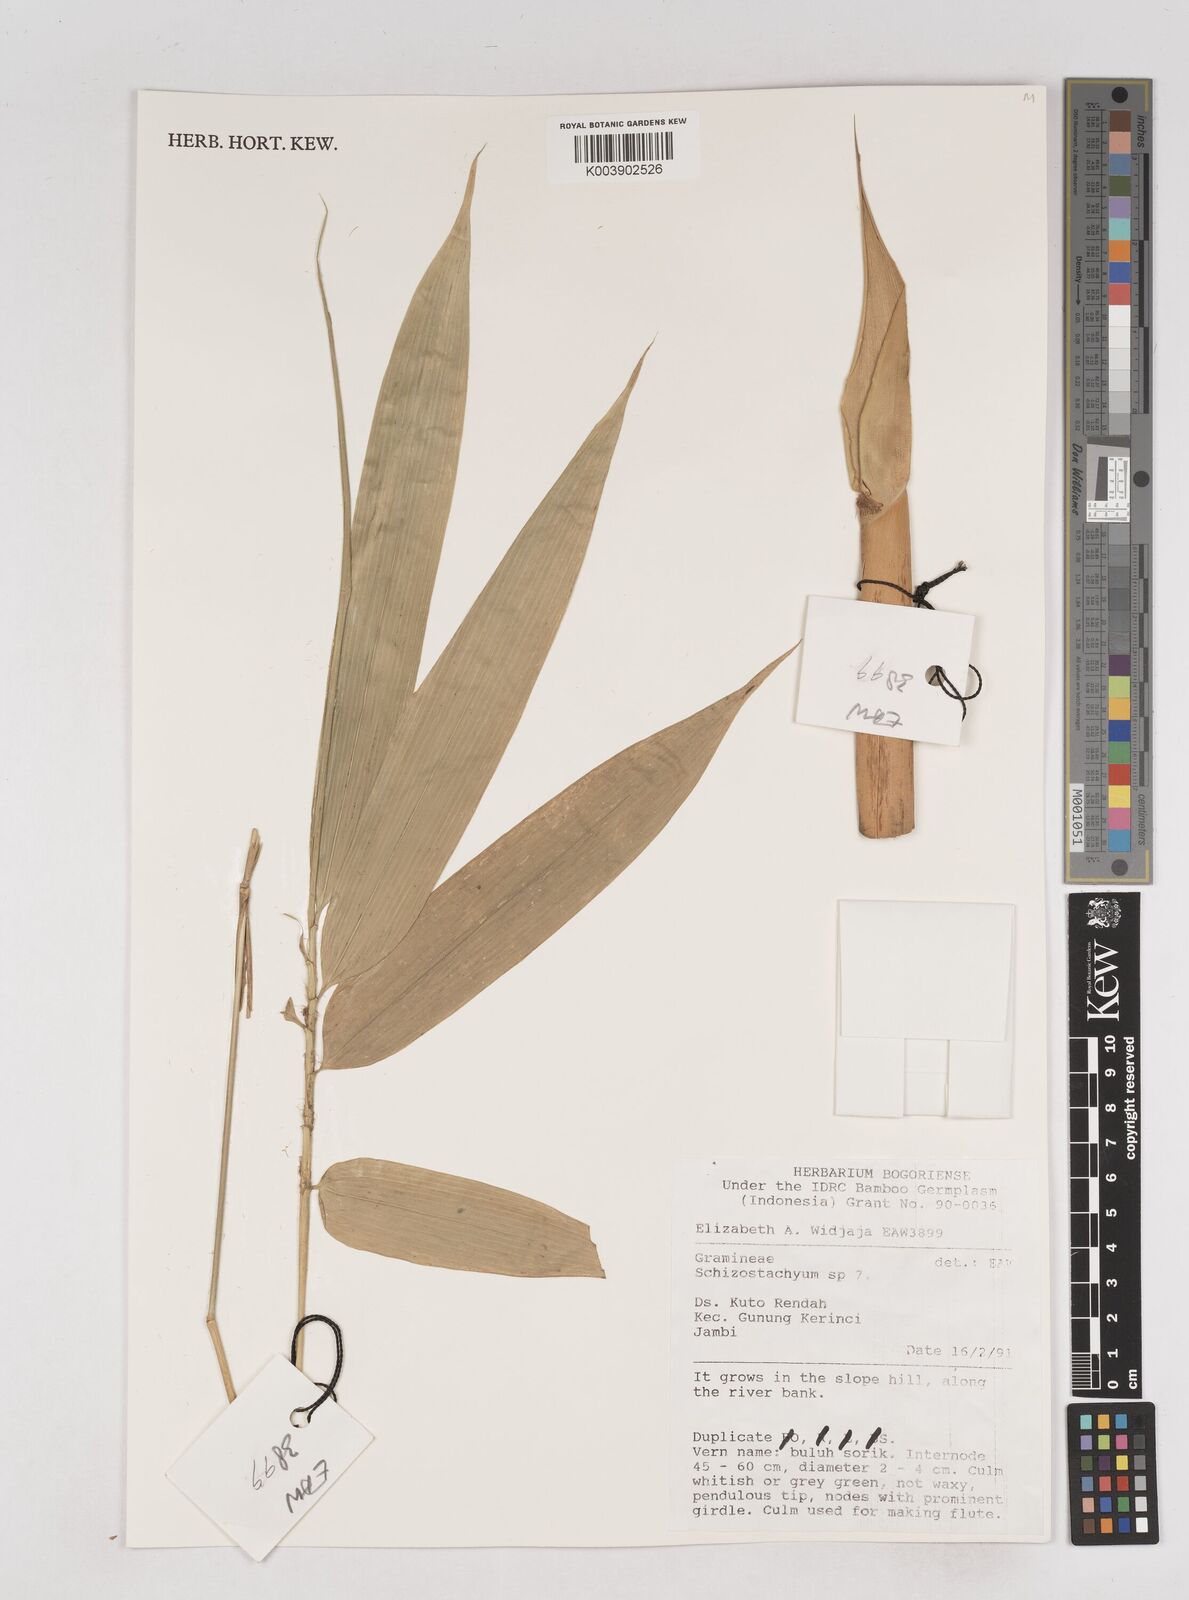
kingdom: Plantae
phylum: Tracheophyta
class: Liliopsida
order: Poales
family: Poaceae
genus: Schizostachyum
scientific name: Schizostachyum
